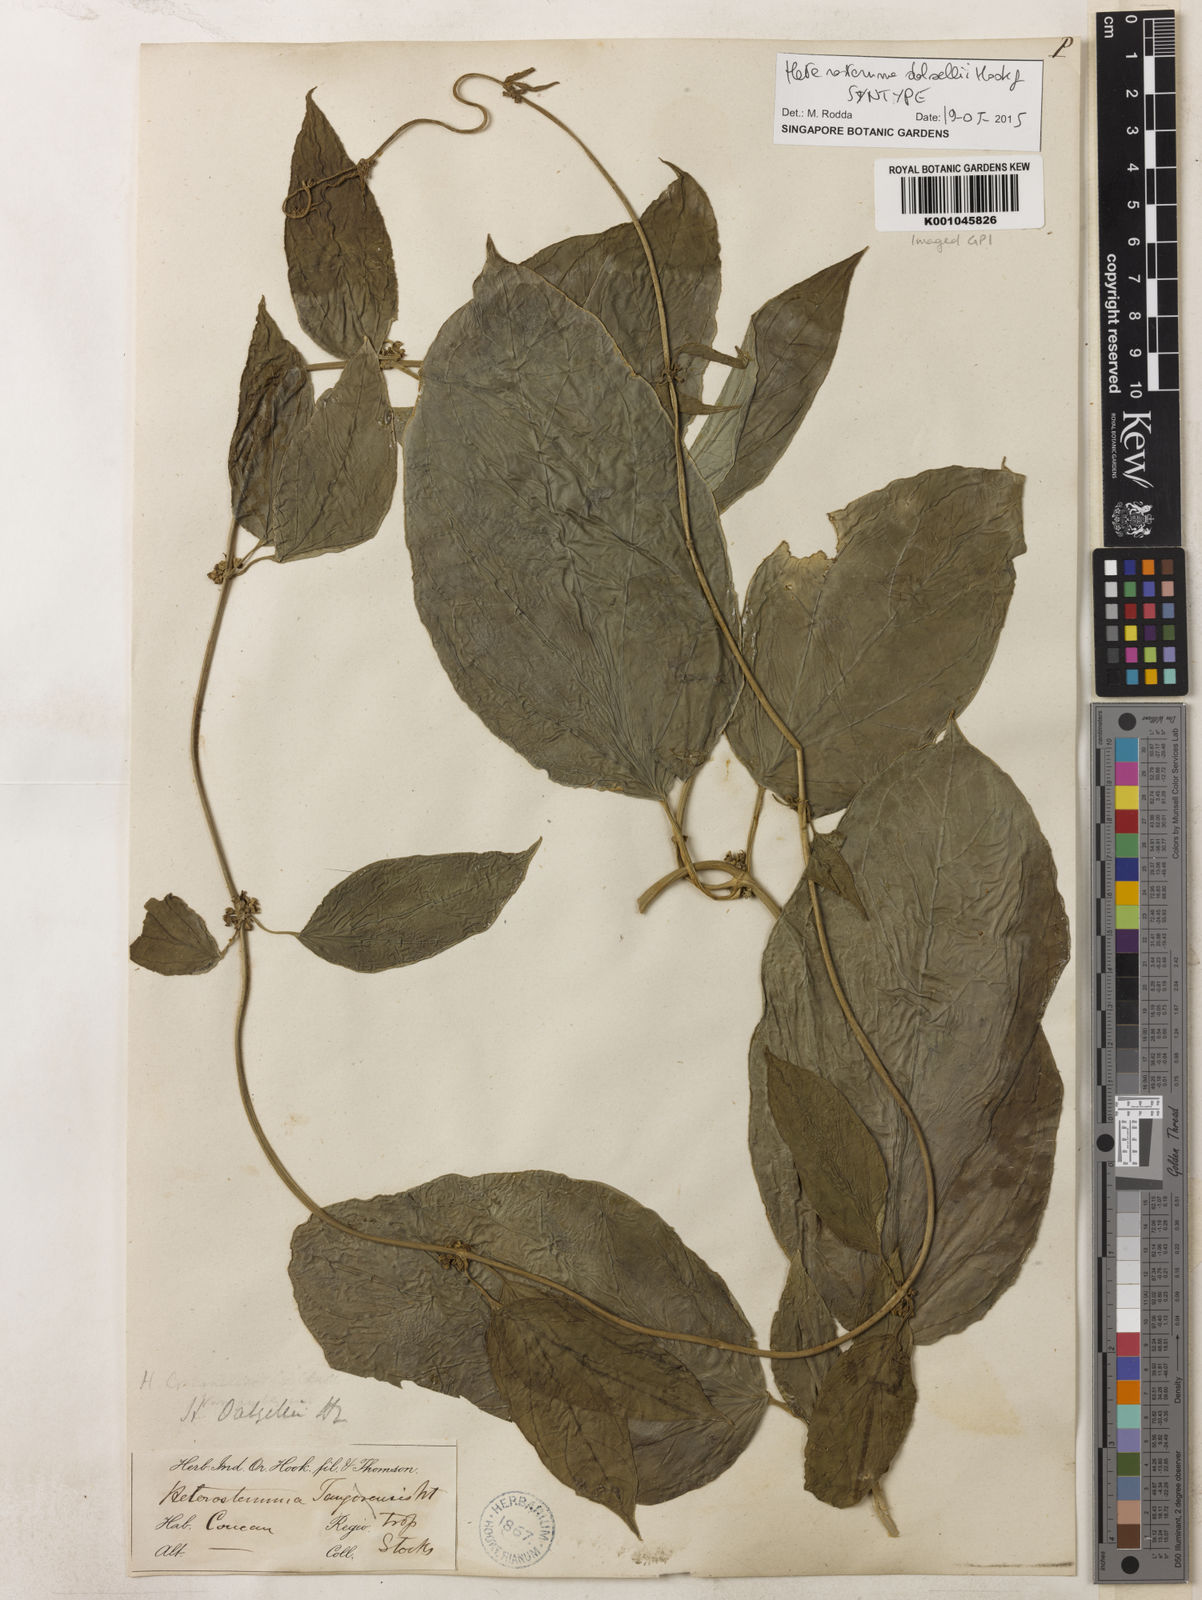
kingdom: Plantae
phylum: Tracheophyta
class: Magnoliopsida
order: Gentianales
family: Apocynaceae
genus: Heterostemma
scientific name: Heterostemma dalzellii
